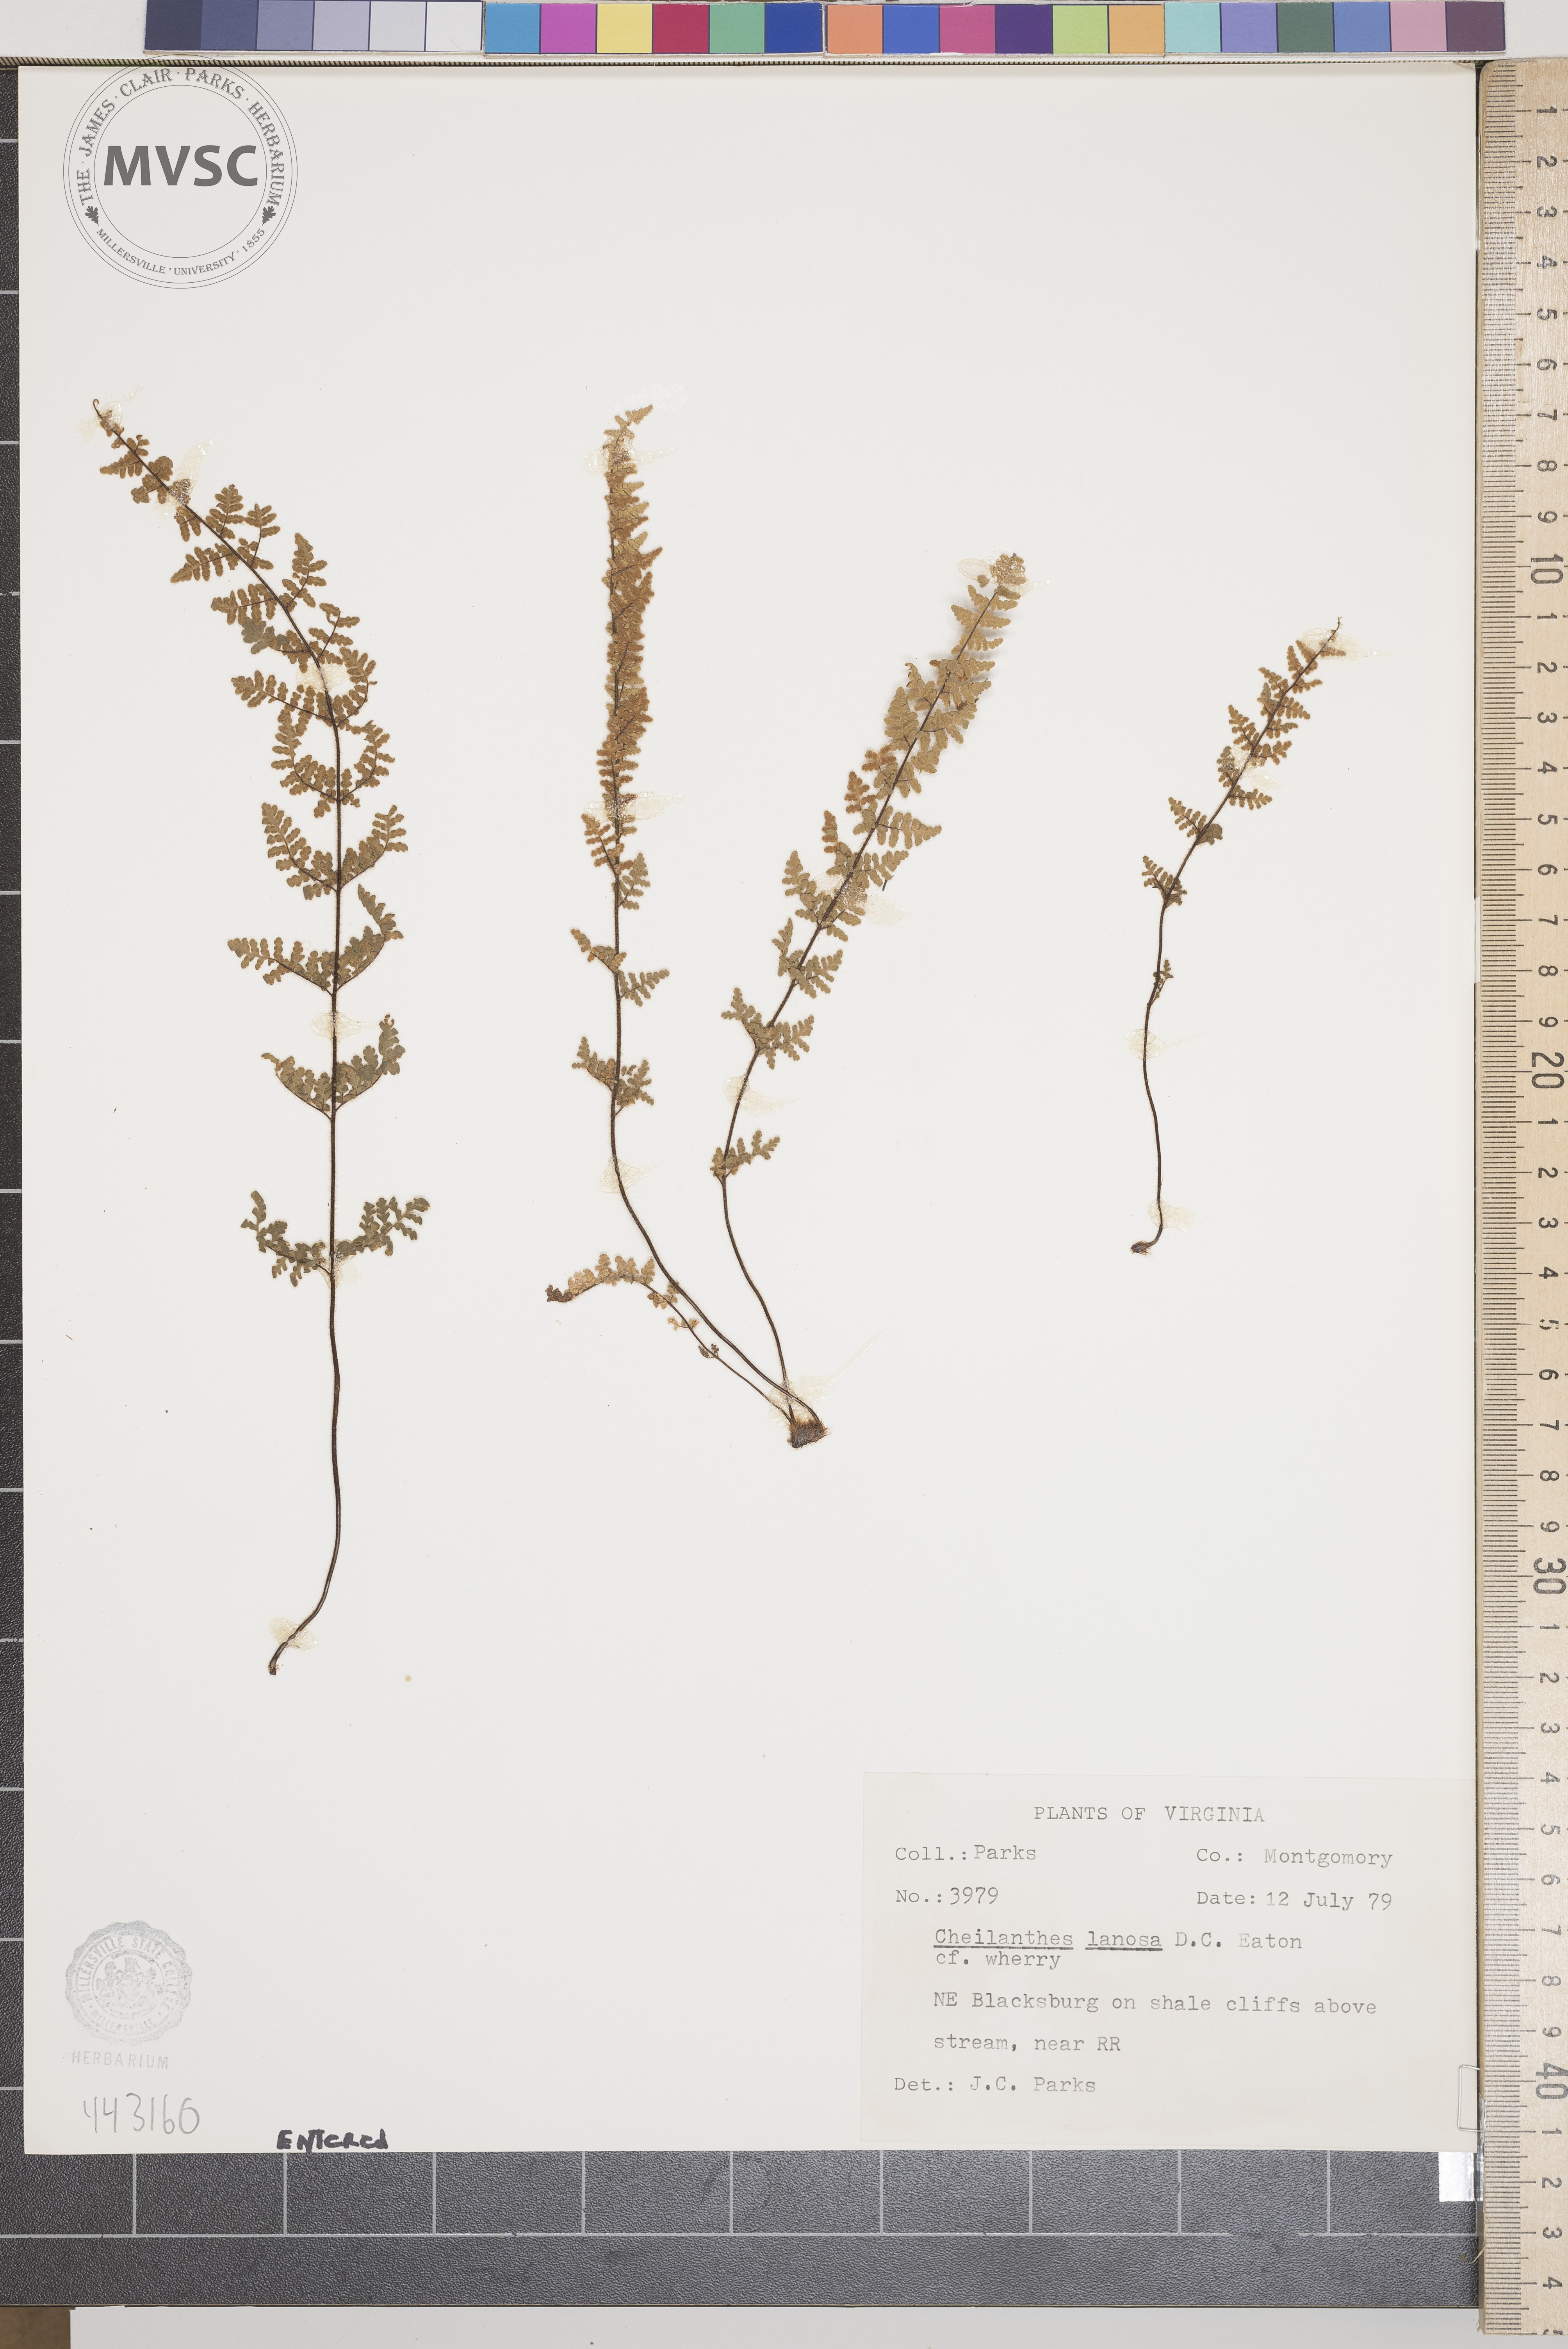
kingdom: Plantae
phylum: Tracheophyta
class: Polypodiopsida
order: Polypodiales
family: Pteridaceae
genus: Myriopteris
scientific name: Myriopteris lanosa
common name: Hairy lip fern
